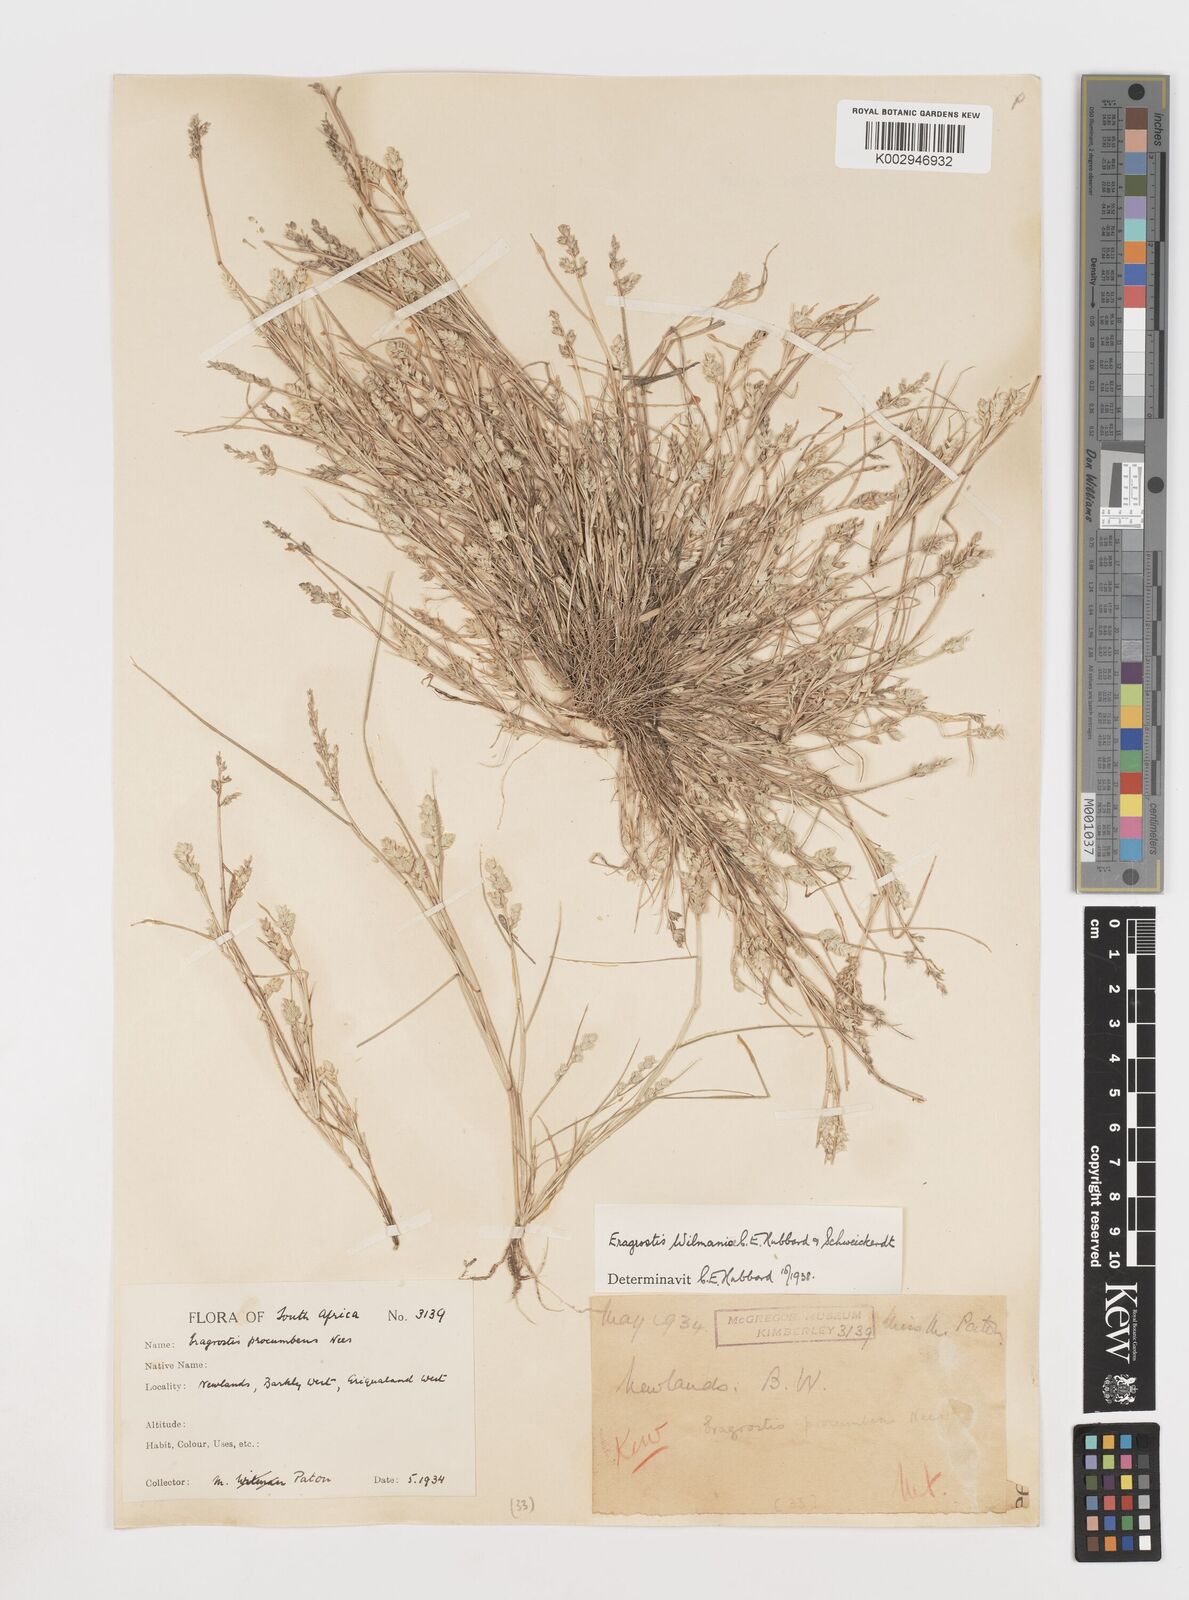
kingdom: Plantae
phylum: Tracheophyta
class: Liliopsida
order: Poales
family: Poaceae
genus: Eragrostis
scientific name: Eragrostis macrochlamys
